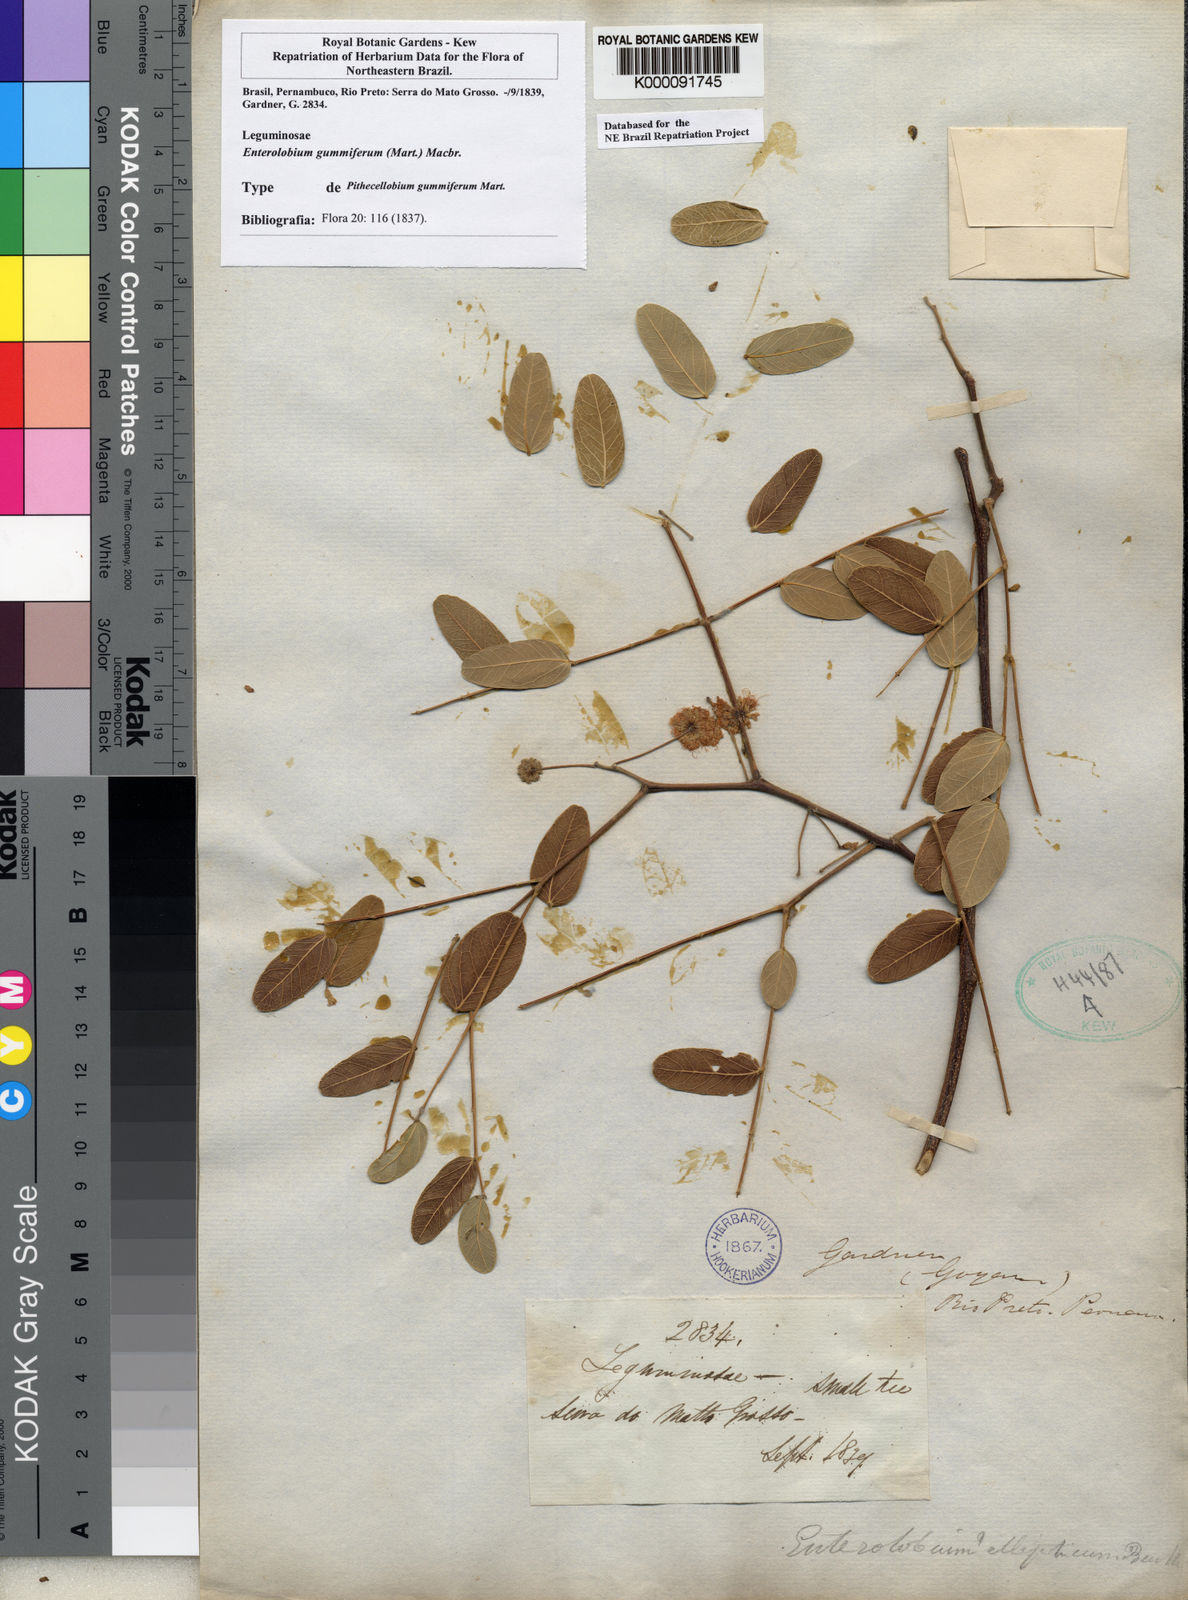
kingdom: Plantae
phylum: Tracheophyta
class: Magnoliopsida
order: Fabales
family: Fabaceae
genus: Enterolobium
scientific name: Enterolobium gummiferum
